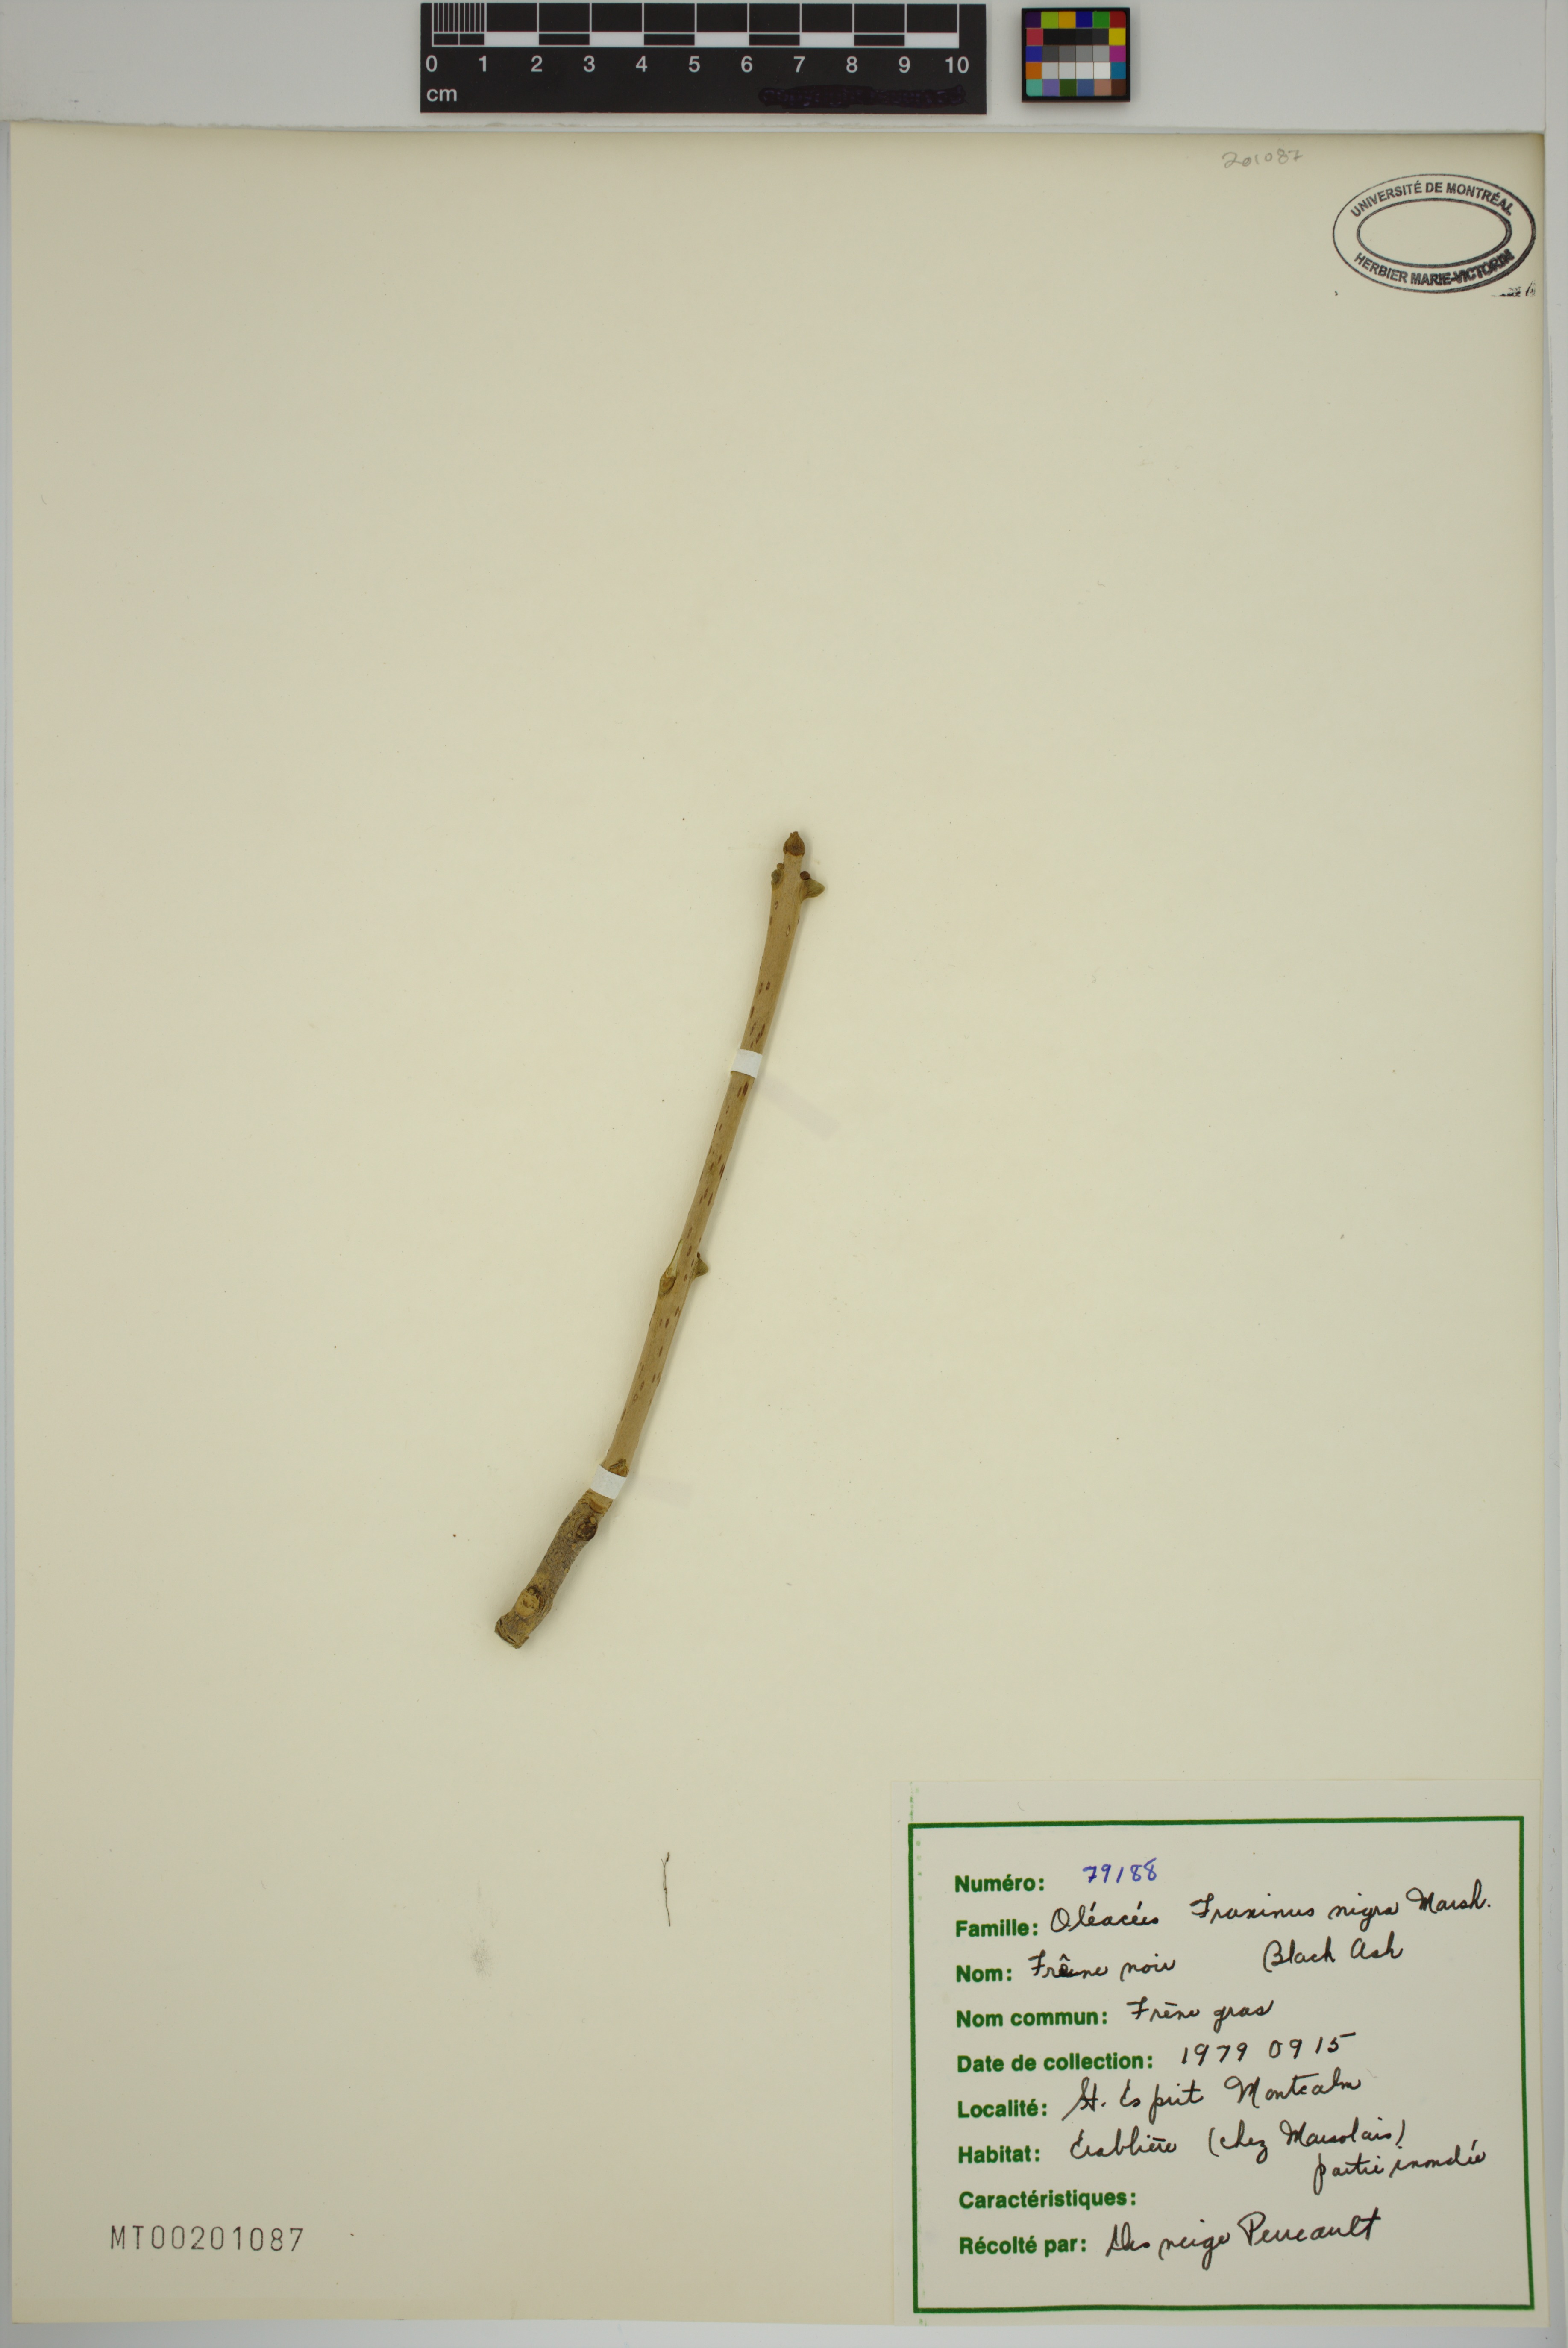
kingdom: Plantae
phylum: Tracheophyta
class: Magnoliopsida
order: Lamiales
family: Oleaceae
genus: Fraxinus
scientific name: Fraxinus nigra
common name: Black ash
